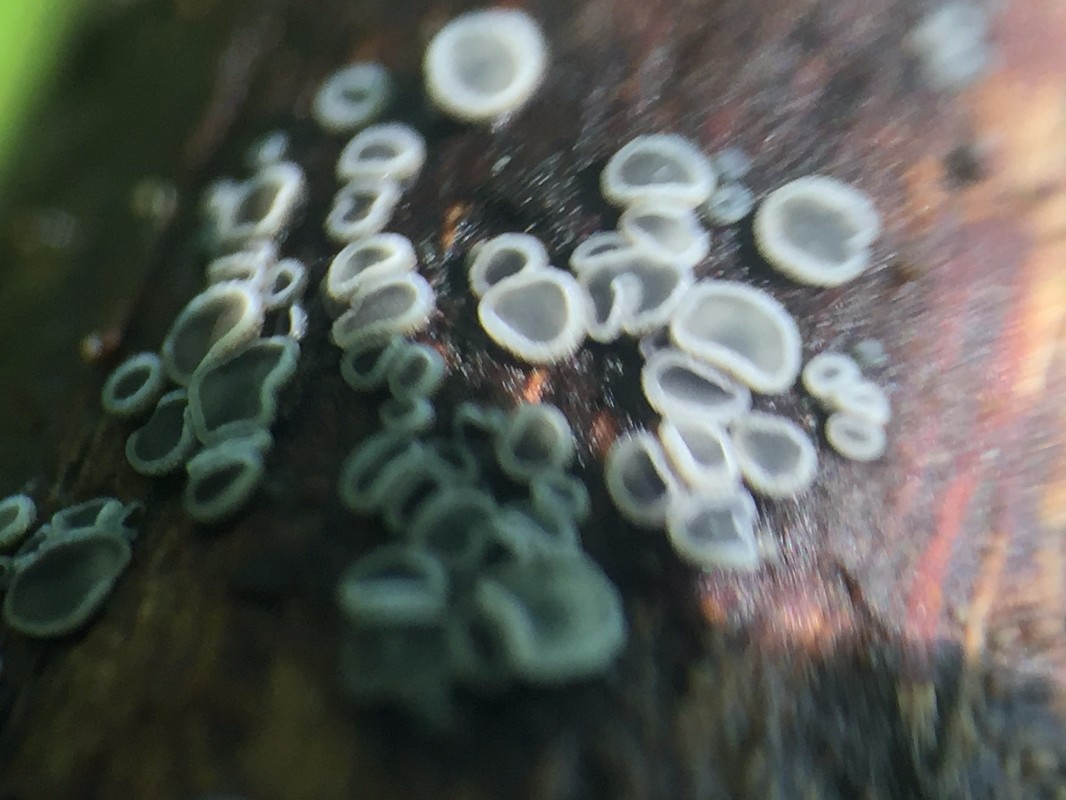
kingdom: Fungi
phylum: Ascomycota
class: Leotiomycetes
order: Helotiales
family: Mollisiaceae
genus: Mollisia
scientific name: Mollisia
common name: gråskive
